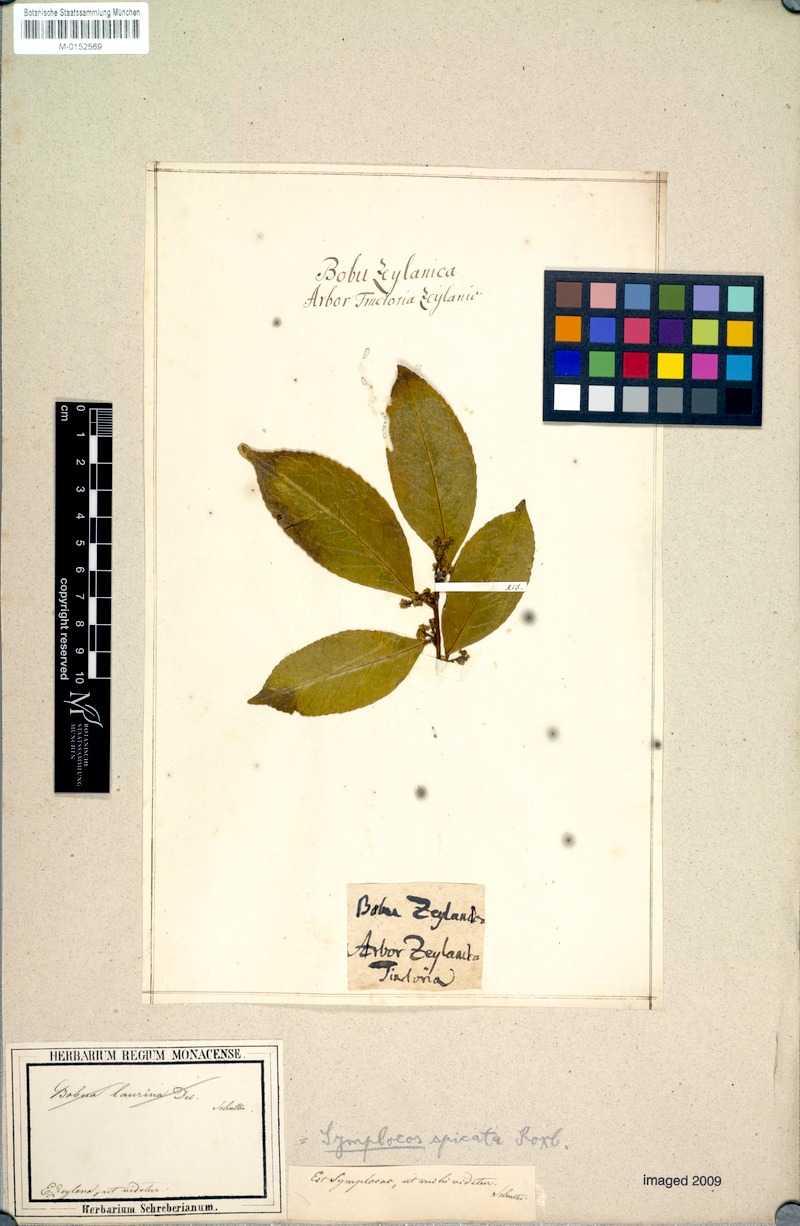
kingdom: Plantae
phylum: Tracheophyta
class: Magnoliopsida
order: Ericales
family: Symplocaceae
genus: Symplocos
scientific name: Symplocos cochinchinensis
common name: Buff hazelwood
